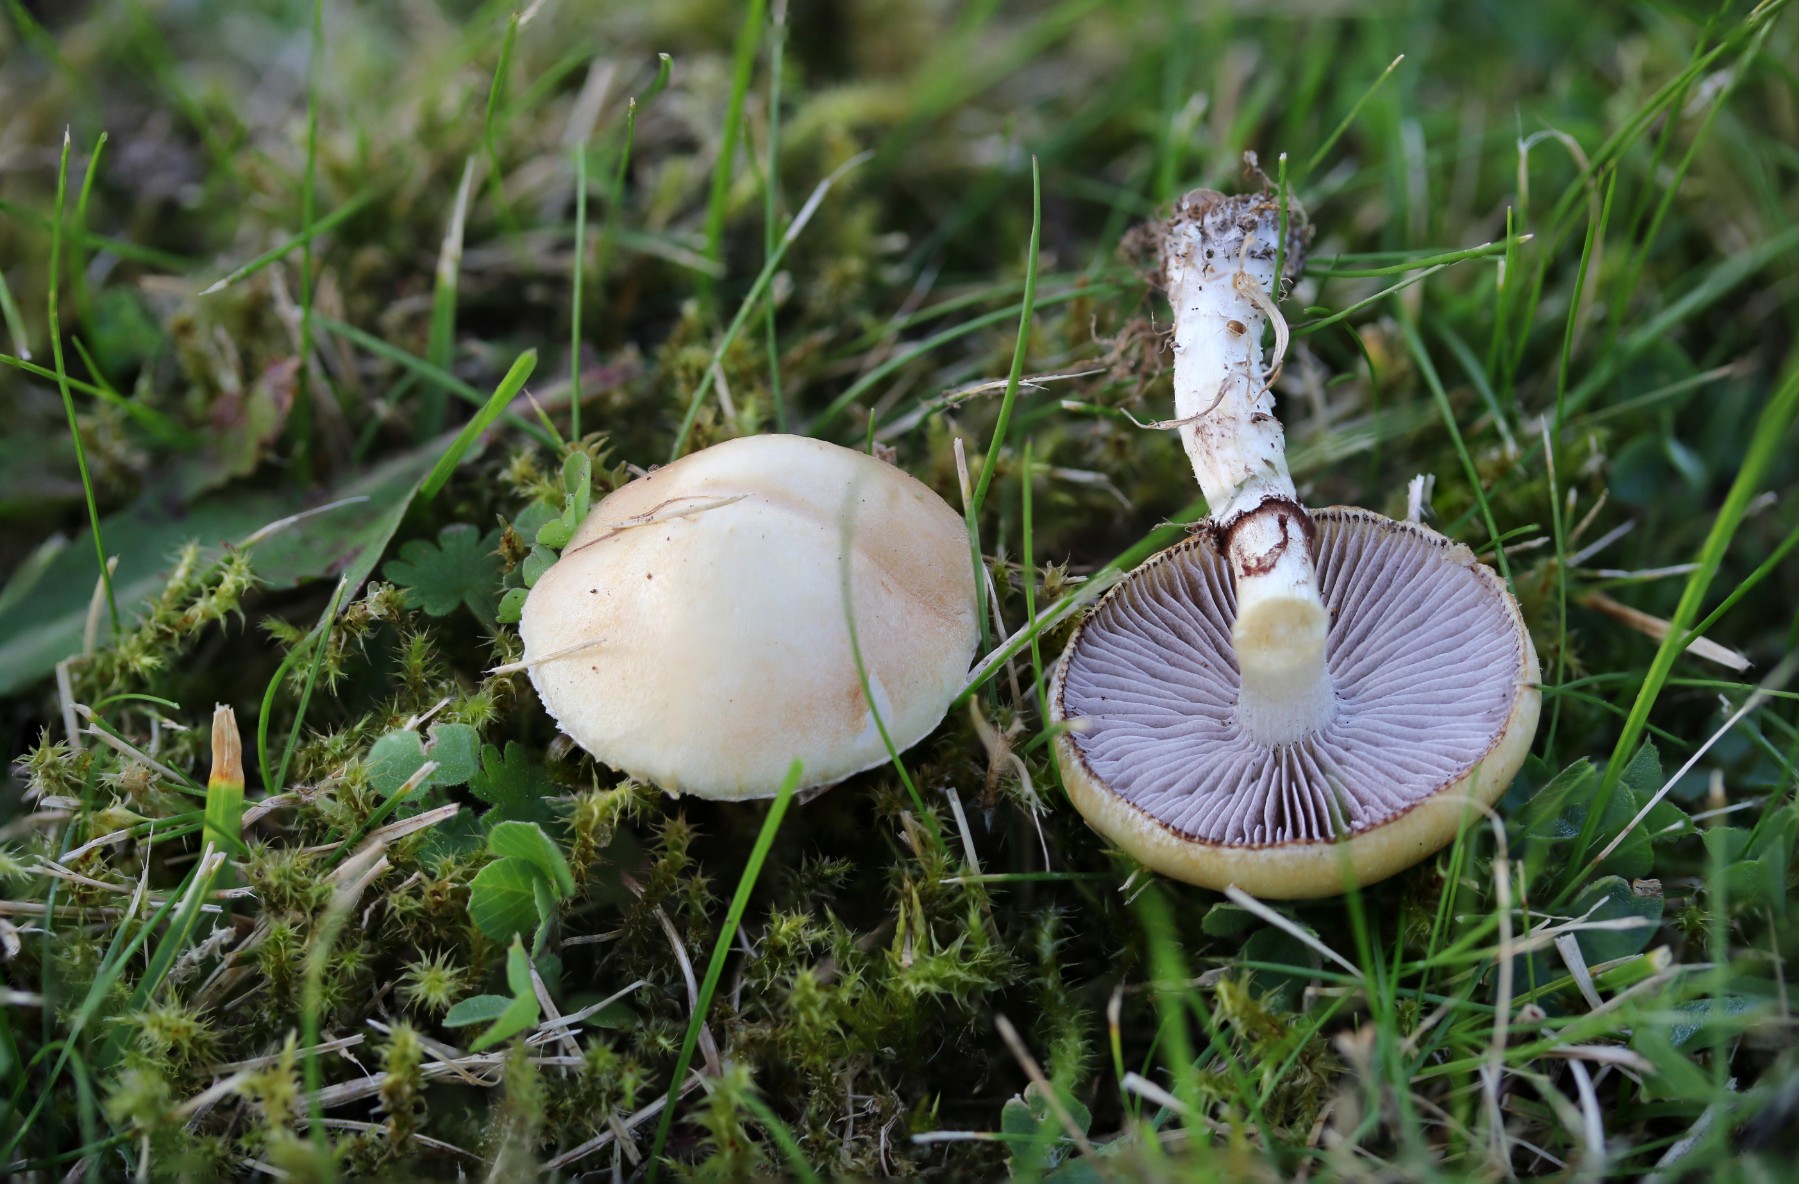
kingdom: Fungi
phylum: Basidiomycota
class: Agaricomycetes
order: Agaricales
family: Hymenogastraceae
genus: Psilocybe
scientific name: Psilocybe coronilla
